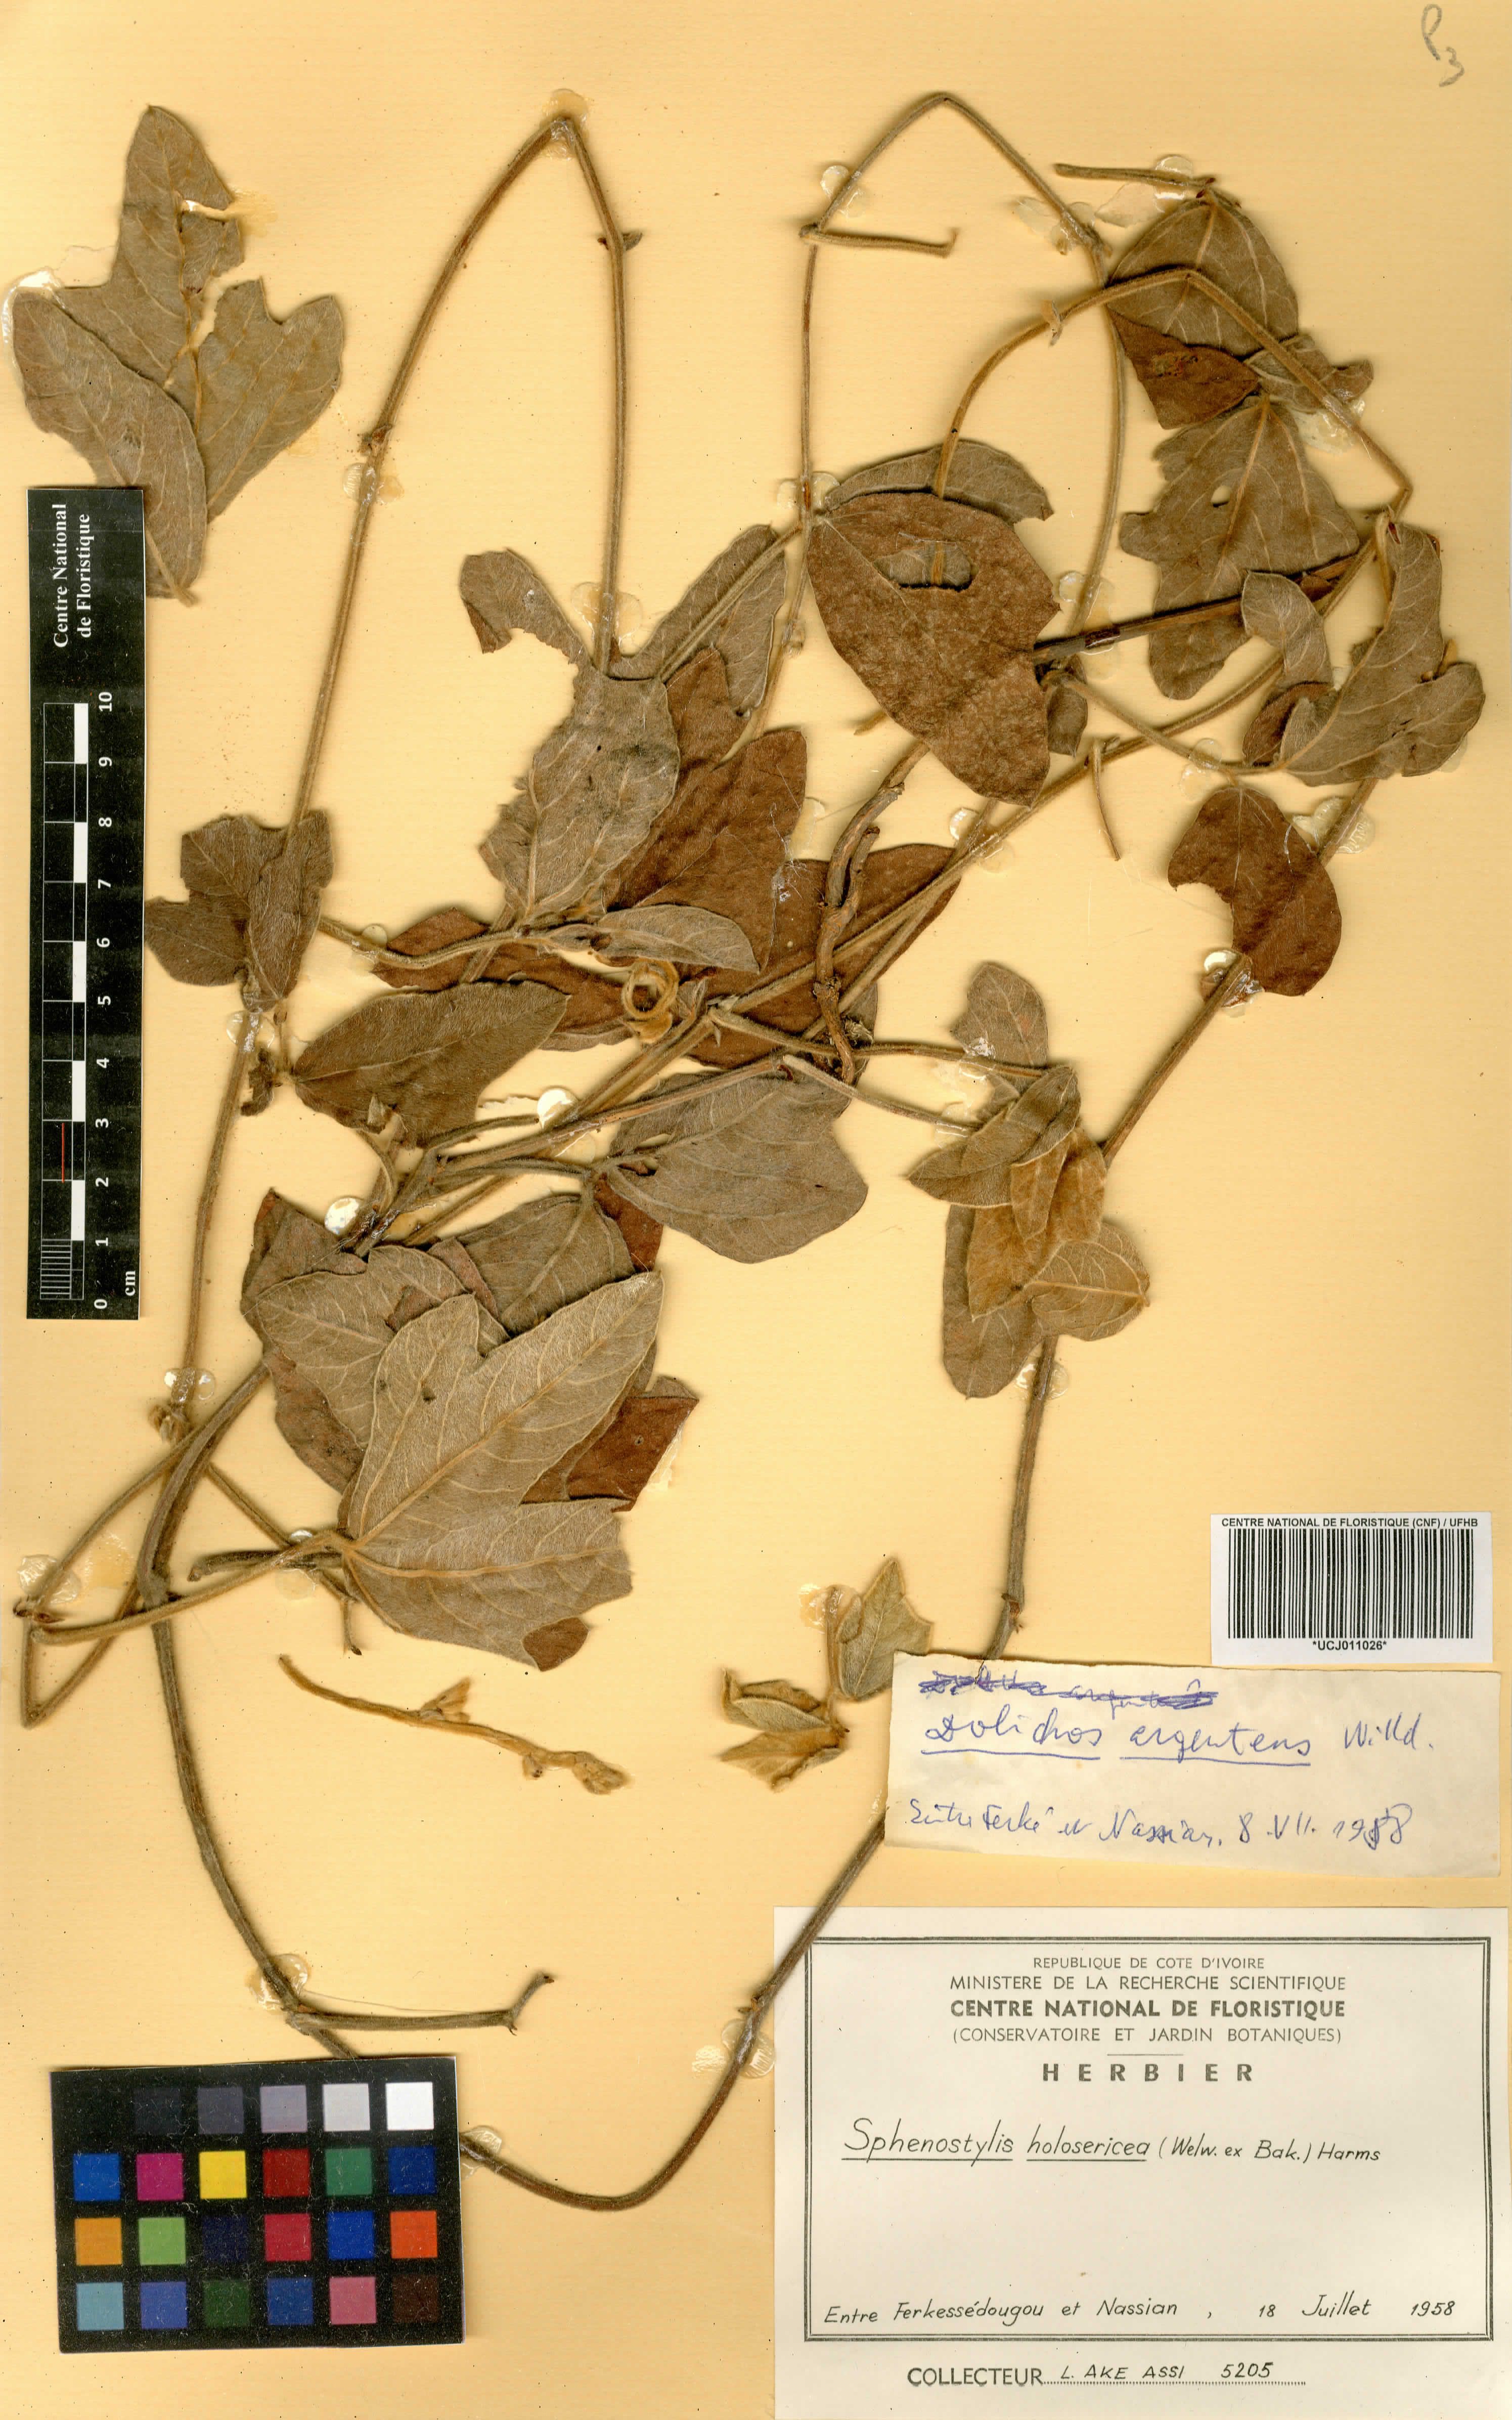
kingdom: Plantae
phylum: Tracheophyta
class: Magnoliopsida
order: Fabales
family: Fabaceae
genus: Nesphostylis
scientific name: Nesphostylis holosericea
